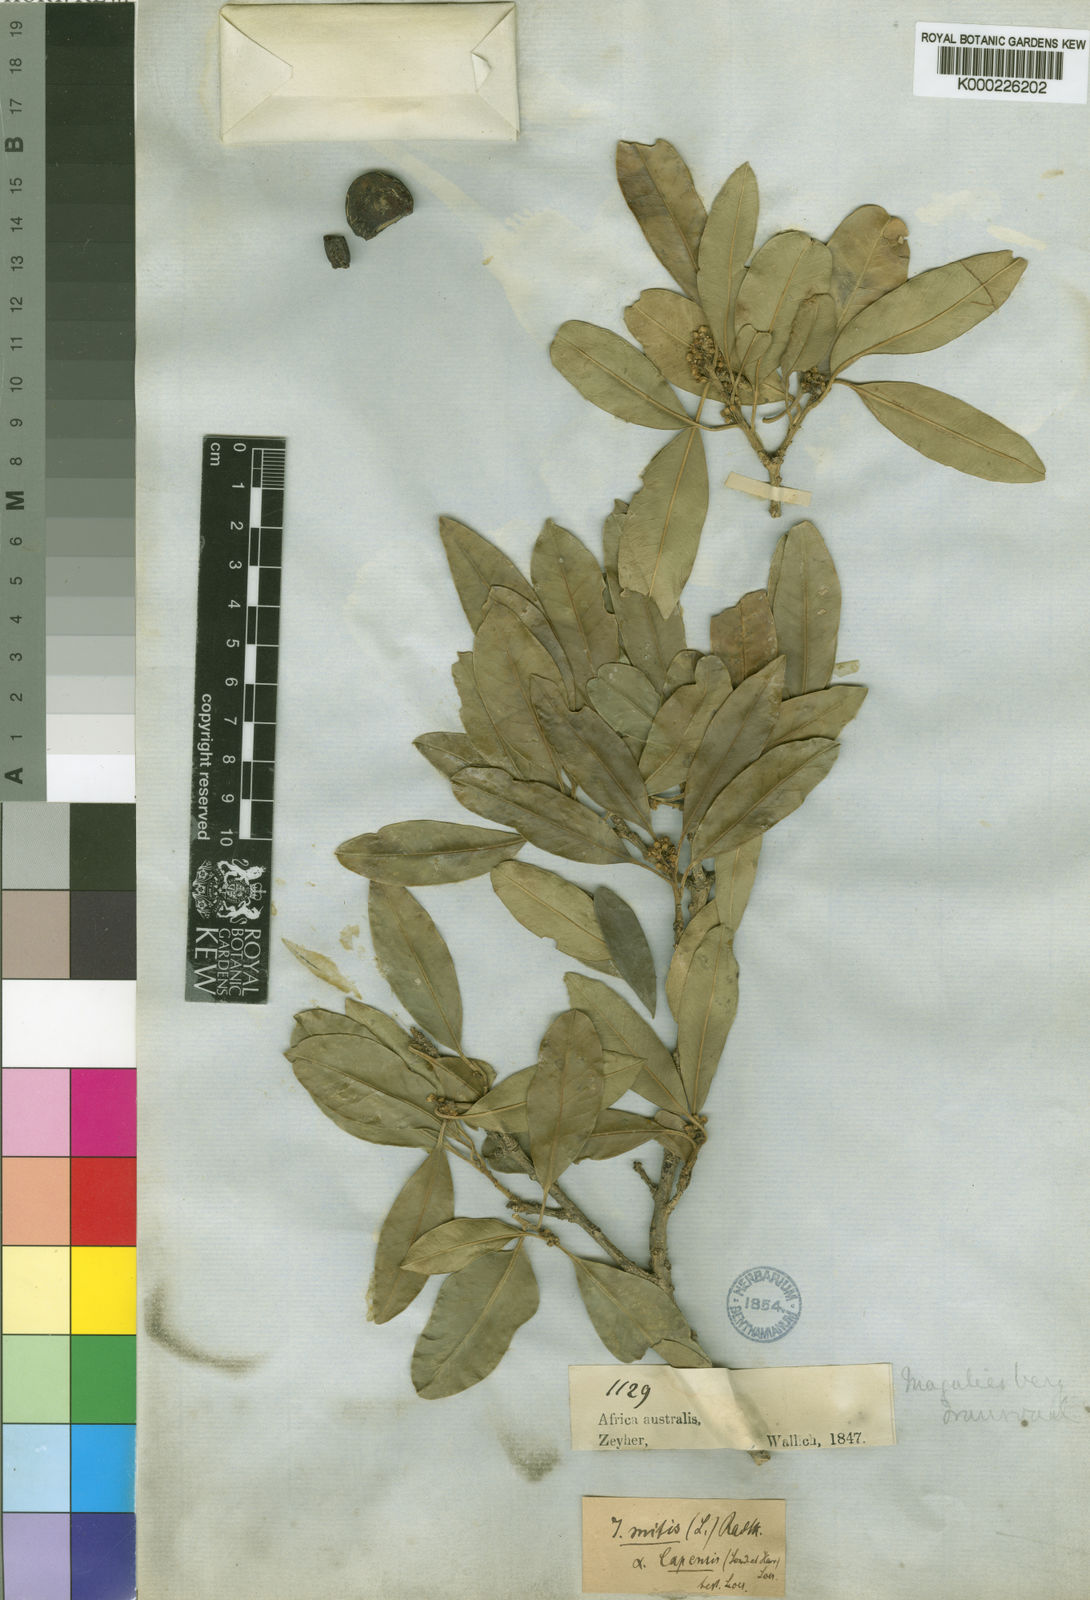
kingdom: Plantae
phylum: Tracheophyta
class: Magnoliopsida
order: Aquifoliales
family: Aquifoliaceae
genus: Ilex
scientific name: Ilex mitis
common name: African holly
